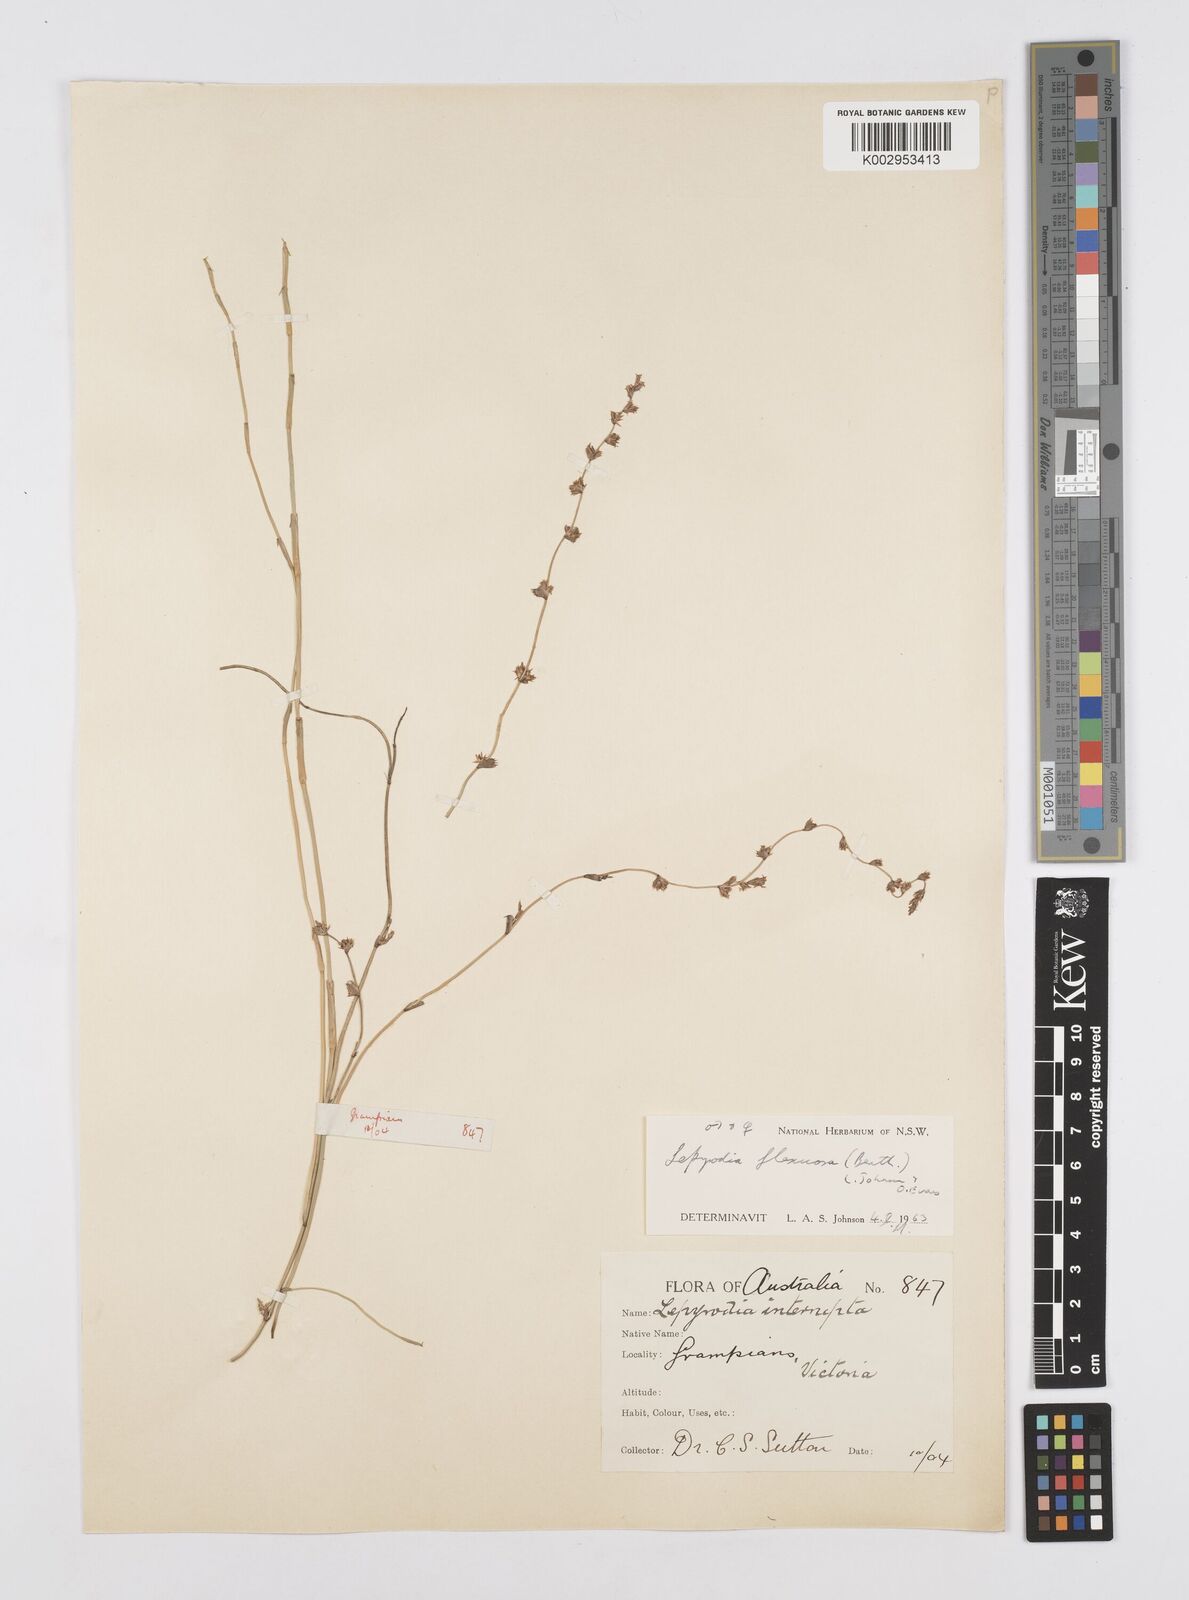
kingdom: Plantae
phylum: Tracheophyta
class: Liliopsida
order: Poales
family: Restionaceae
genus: Lepyrodia
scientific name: Lepyrodia flexuosa
